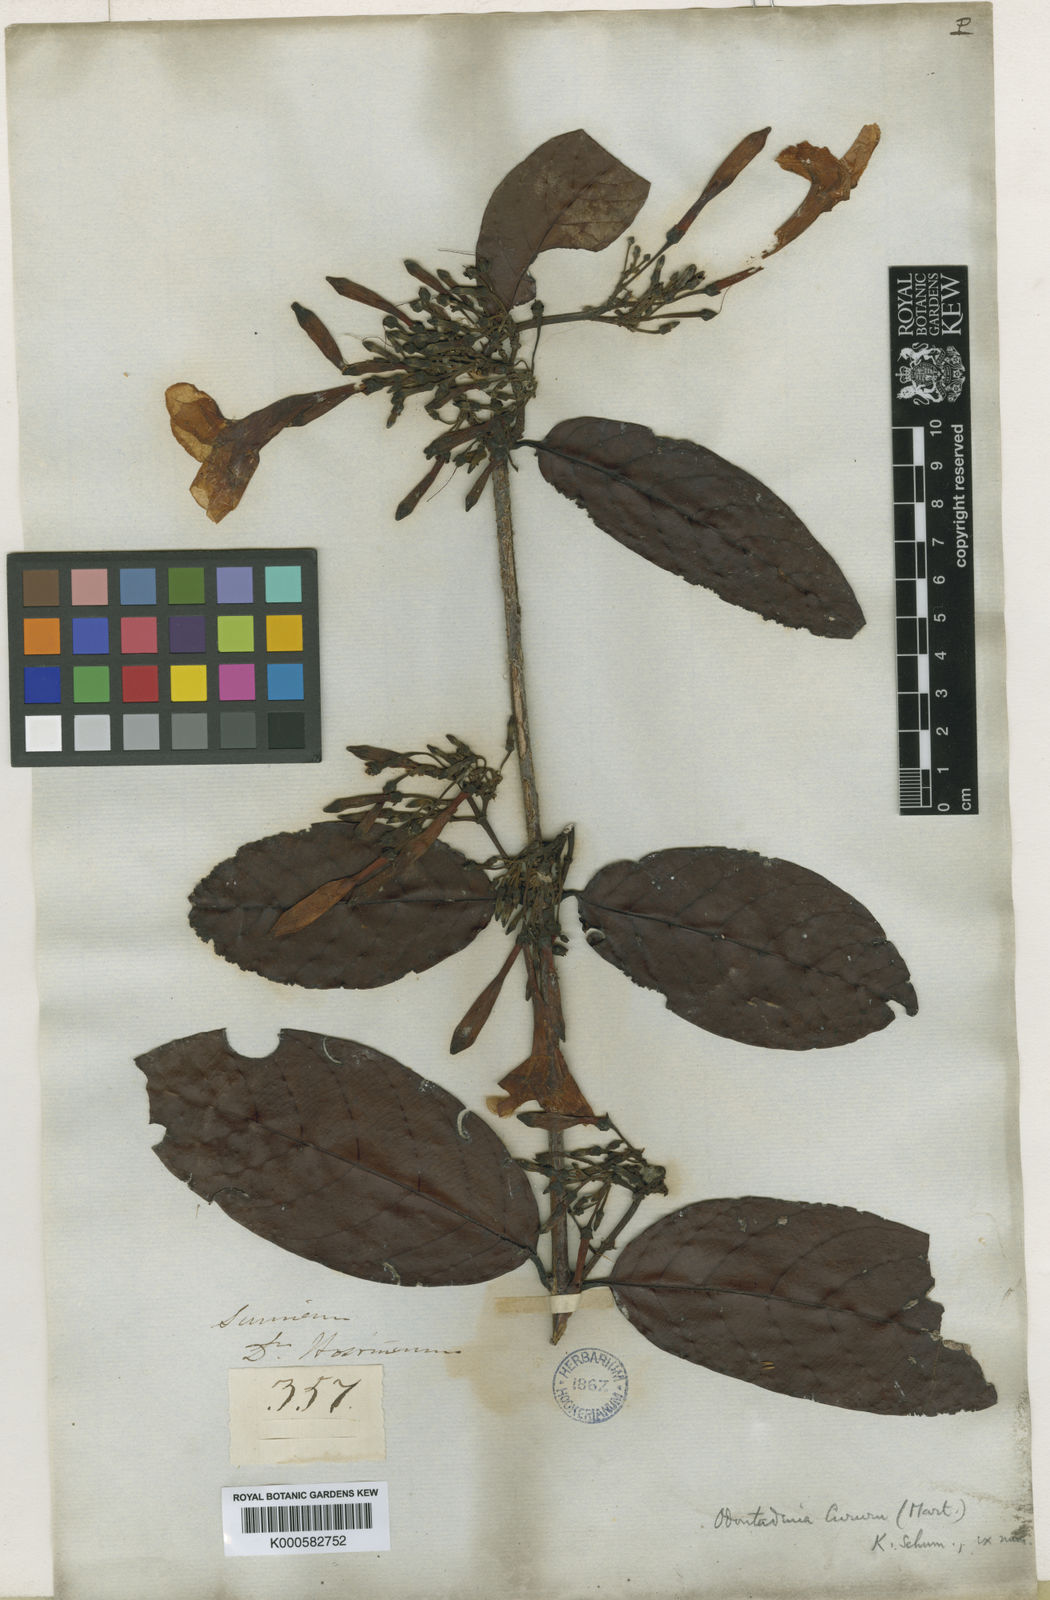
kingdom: Plantae
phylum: Tracheophyta
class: Magnoliopsida
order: Gentianales
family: Apocynaceae
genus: Odontadenia
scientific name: Odontadenia puncticulosa
